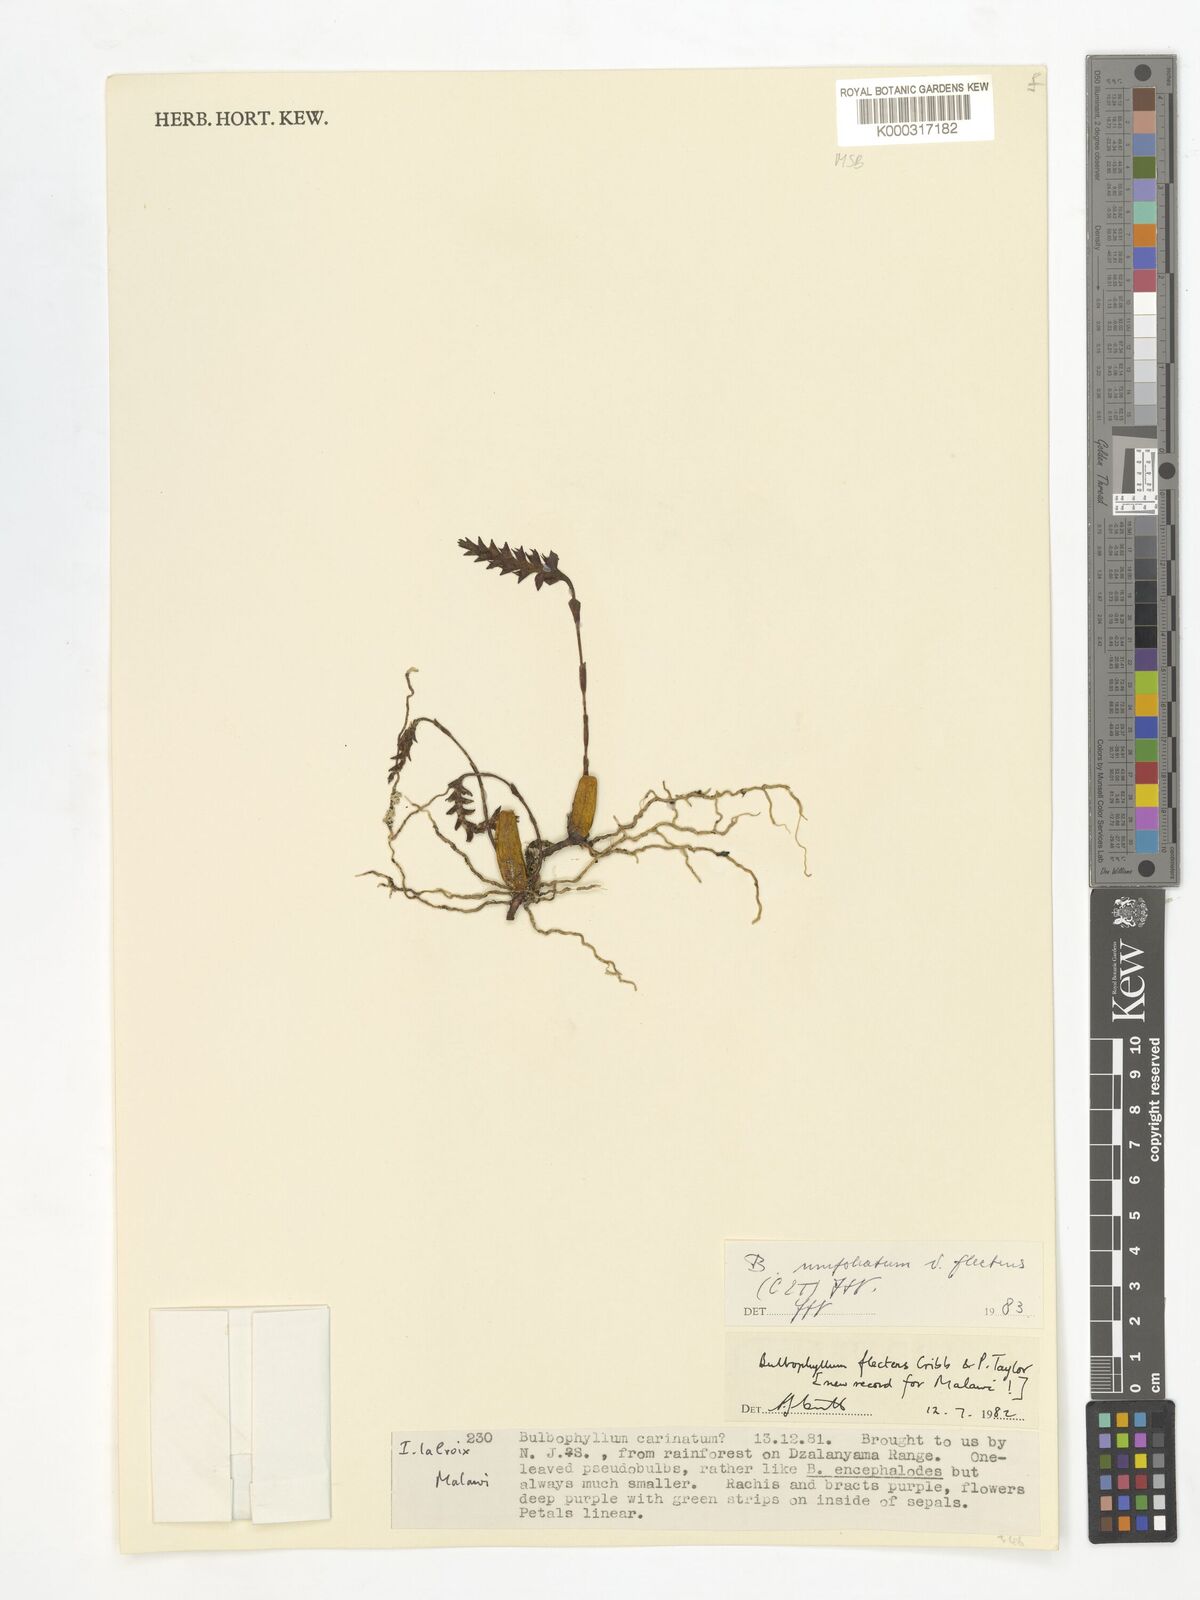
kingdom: Plantae
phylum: Tracheophyta
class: Liliopsida
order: Asparagales
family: Orchidaceae
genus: Bulbophyllum
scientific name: Bulbophyllum unifoliatum
